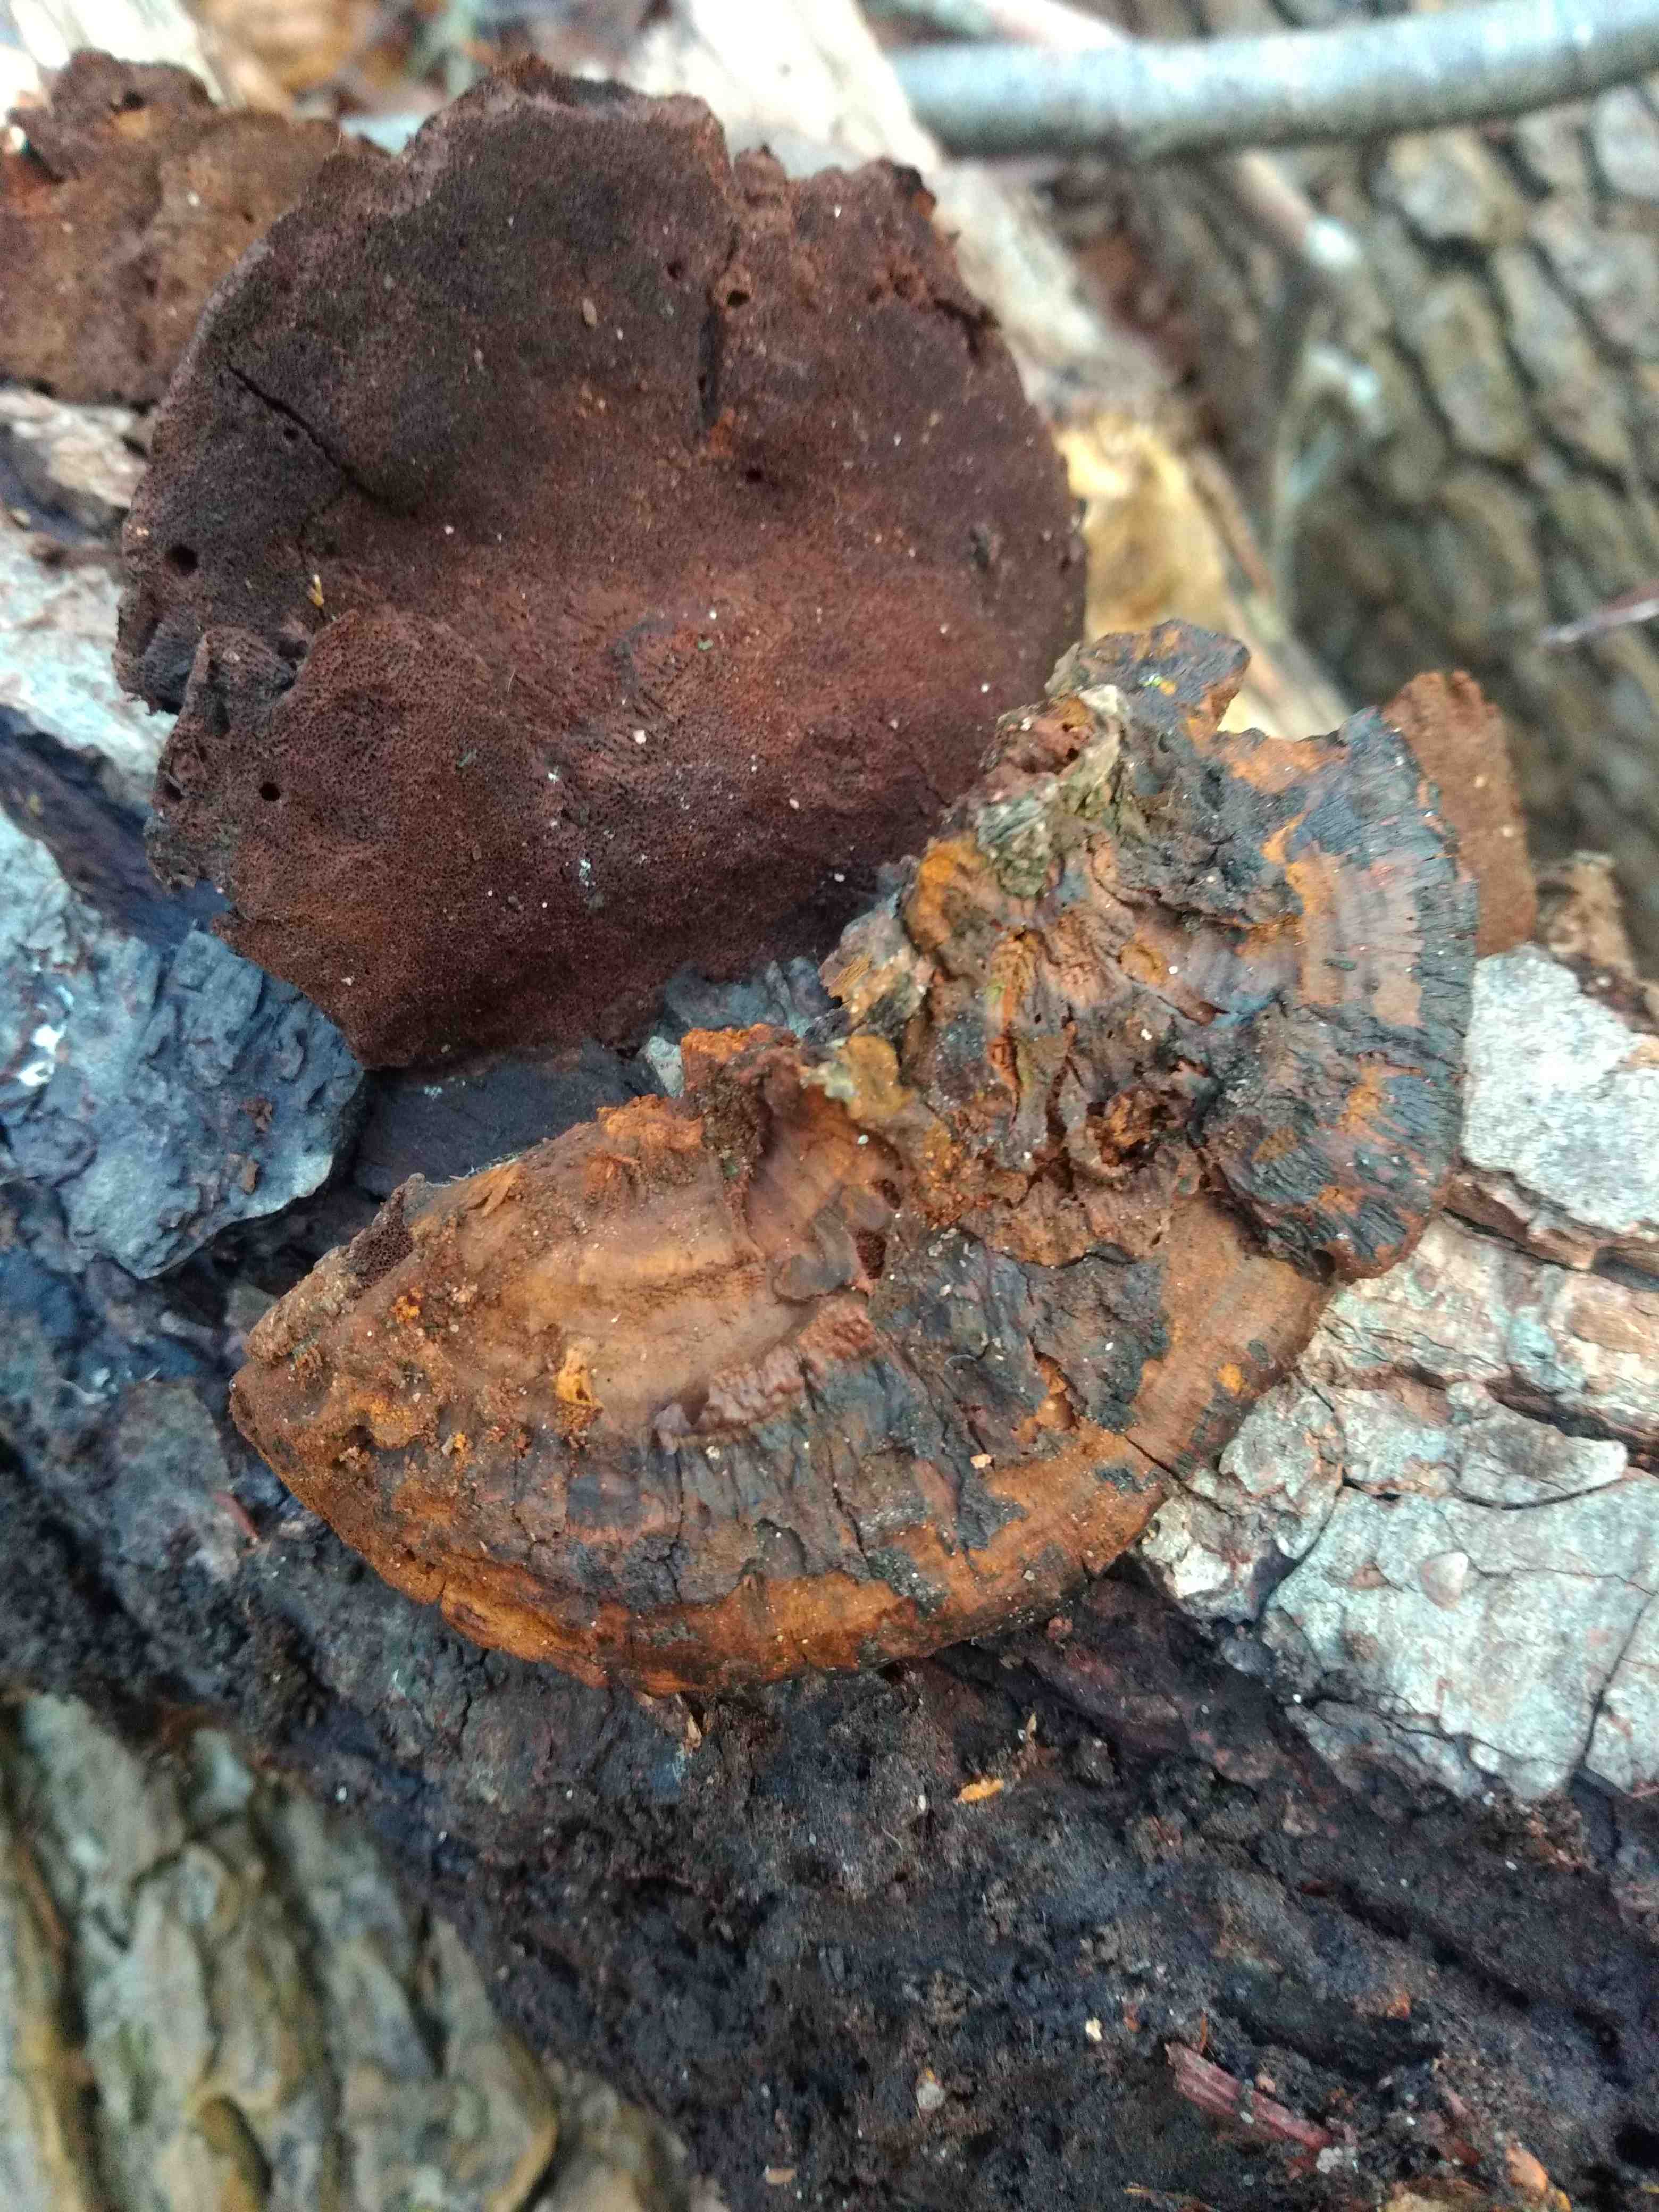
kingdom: Fungi
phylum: Basidiomycota
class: Agaricomycetes
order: Hymenochaetales
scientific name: Hymenochaetales
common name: børstesvampordenen
